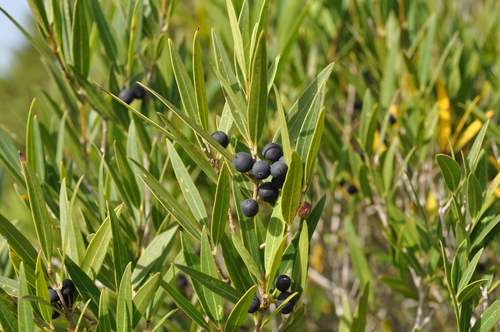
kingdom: Plantae
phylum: Tracheophyta
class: Magnoliopsida
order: Lamiales
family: Oleaceae
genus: Phillyrea
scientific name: Phillyrea angustifolia
